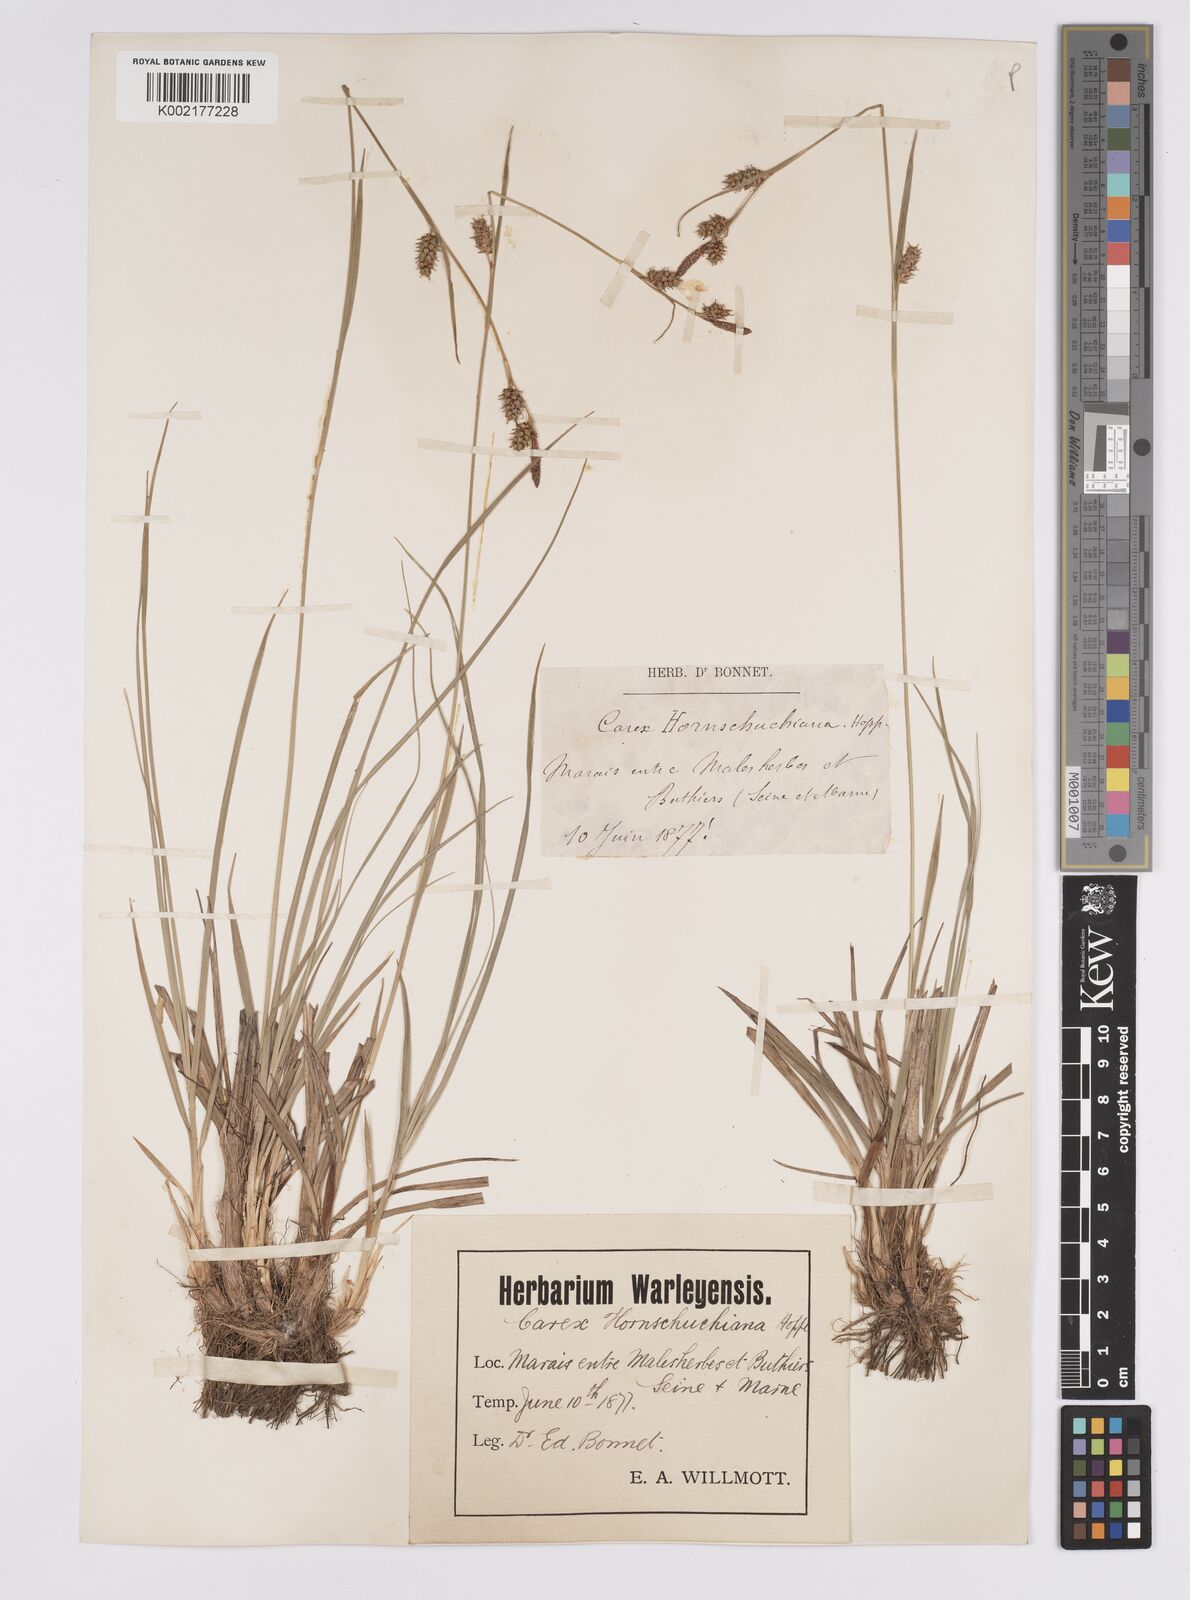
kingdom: Plantae
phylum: Tracheophyta
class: Liliopsida
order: Poales
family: Cyperaceae
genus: Carex
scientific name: Carex hostiana
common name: Tawny sedge
